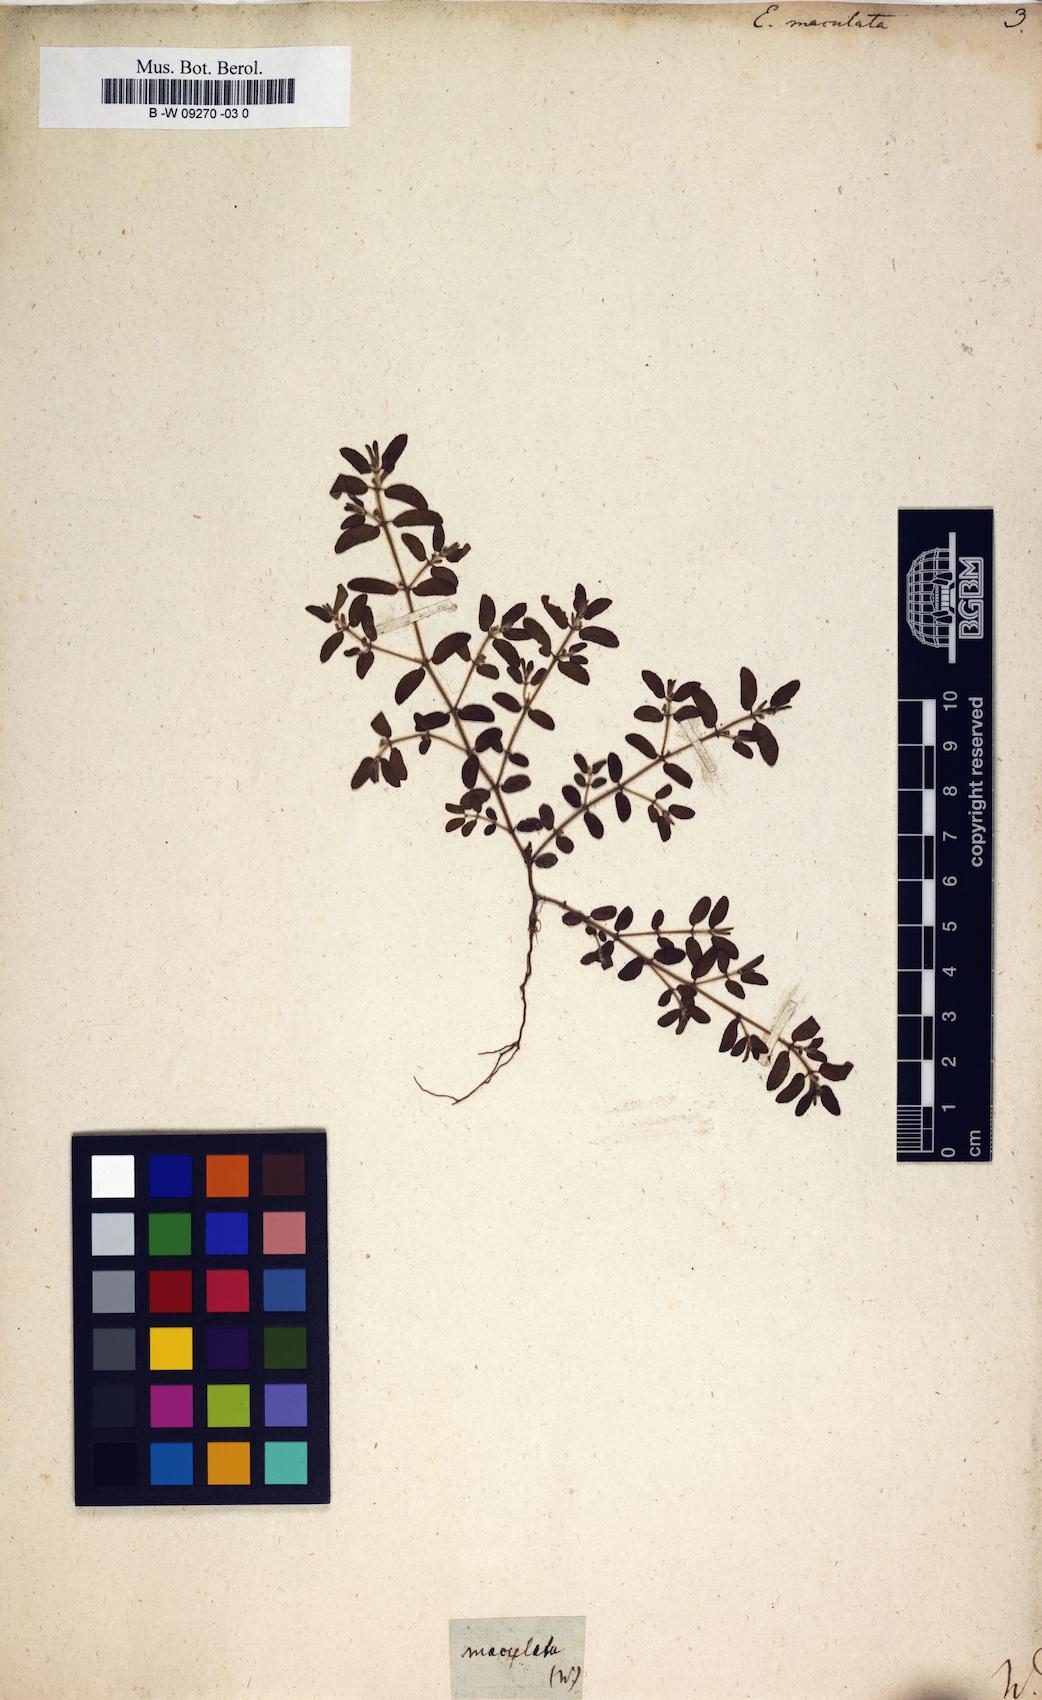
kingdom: Plantae
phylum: Tracheophyta
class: Magnoliopsida
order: Malpighiales
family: Euphorbiaceae
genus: Euphorbia
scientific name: Euphorbia maculata
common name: Spotted spurge
